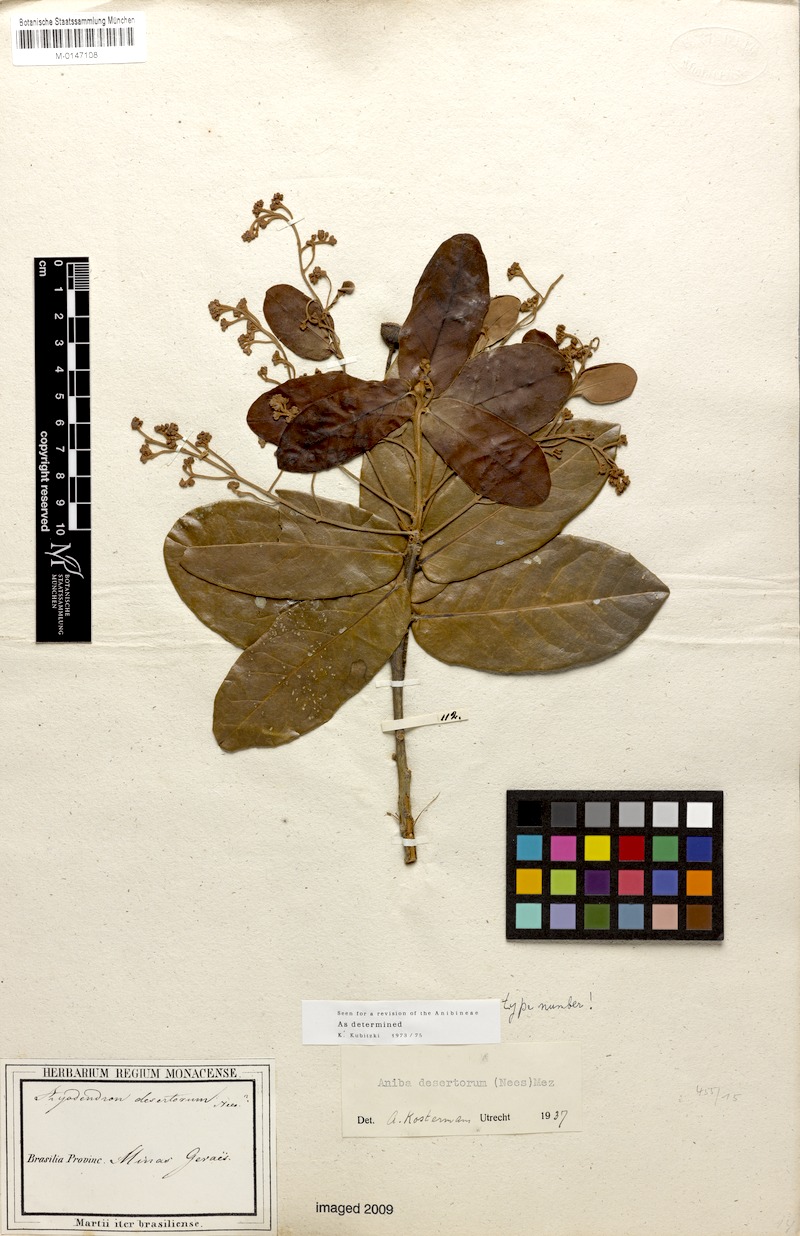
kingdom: Plantae
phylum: Tracheophyta
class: Magnoliopsida
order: Laurales
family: Lauraceae
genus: Aniba
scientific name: Aniba desertorum
